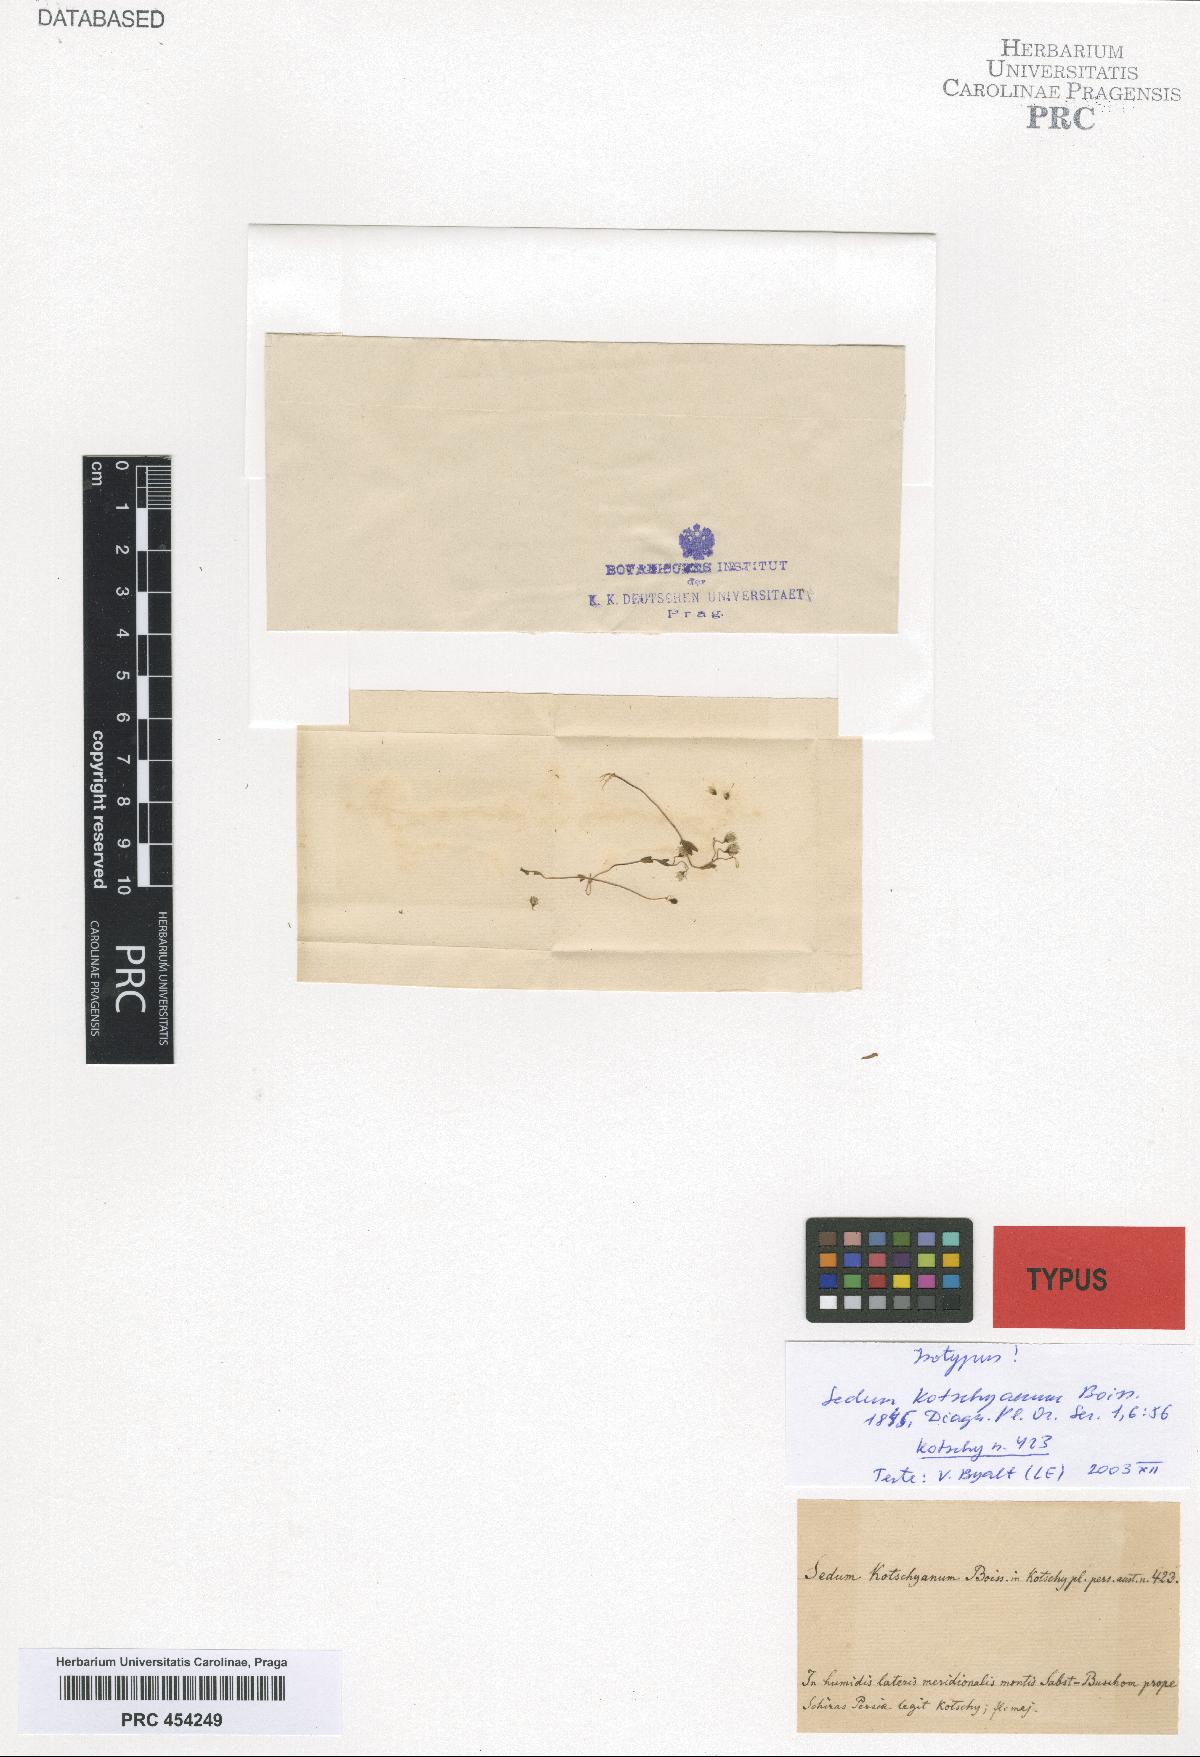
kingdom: Plantae
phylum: Tracheophyta
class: Magnoliopsida
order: Saxifragales
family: Crassulaceae
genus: Sedum
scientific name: Sedum kotschyanum
